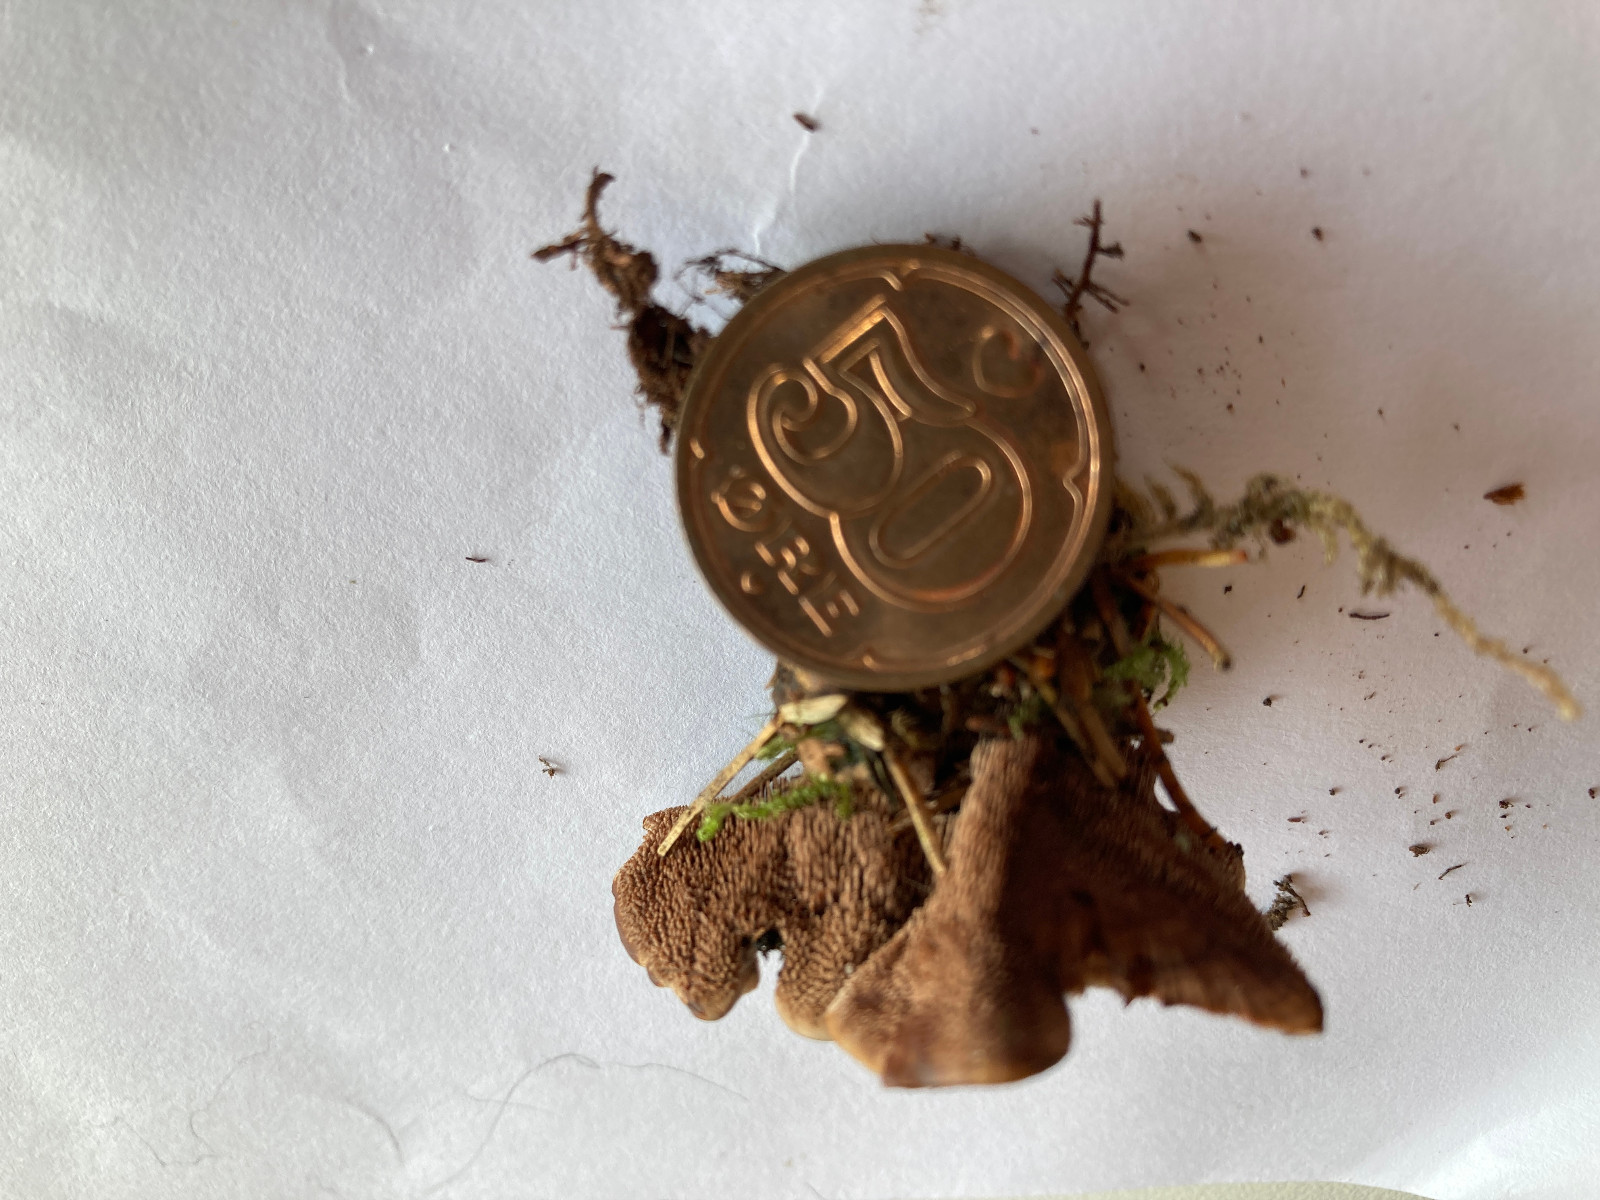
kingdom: Fungi
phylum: Basidiomycota
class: Agaricomycetes
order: Thelephorales
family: Bankeraceae
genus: Hydnellum
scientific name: Hydnellum cumulatum
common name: Rosette tooth
